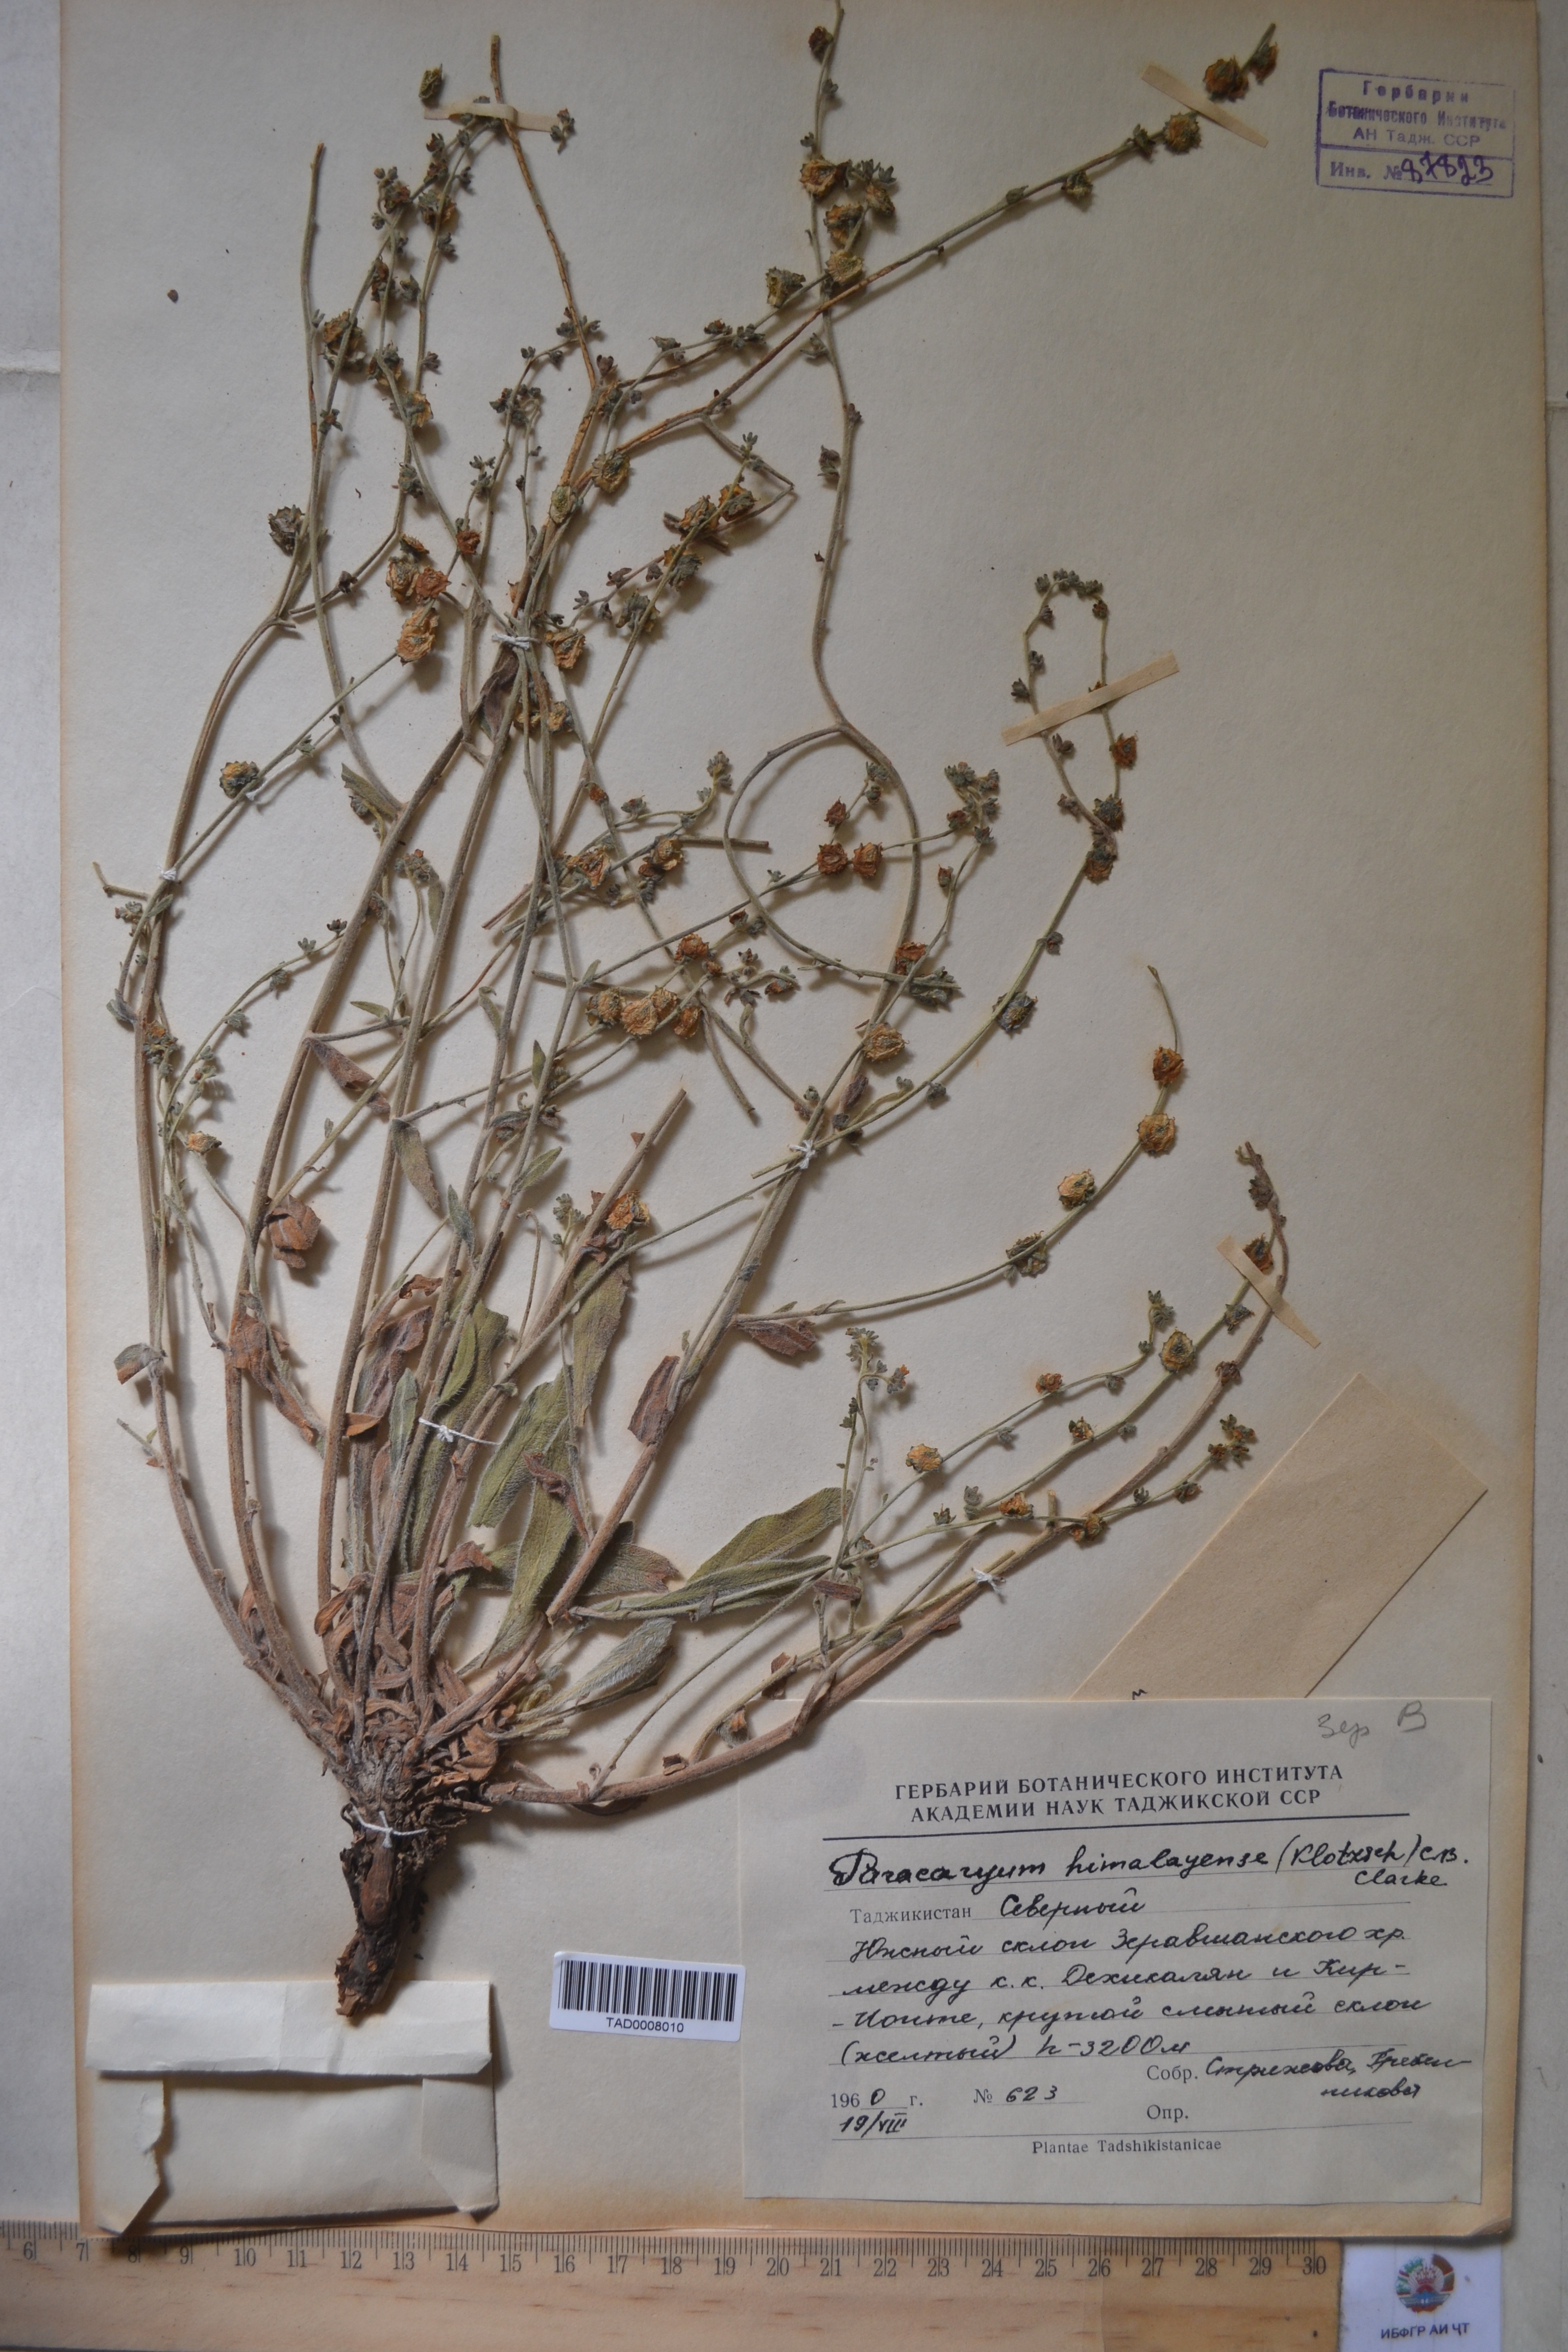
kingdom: Plantae
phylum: Tracheophyta
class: Magnoliopsida
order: Boraginales
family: Boraginaceae
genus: Paracaryum
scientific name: Paracaryum himalayense
